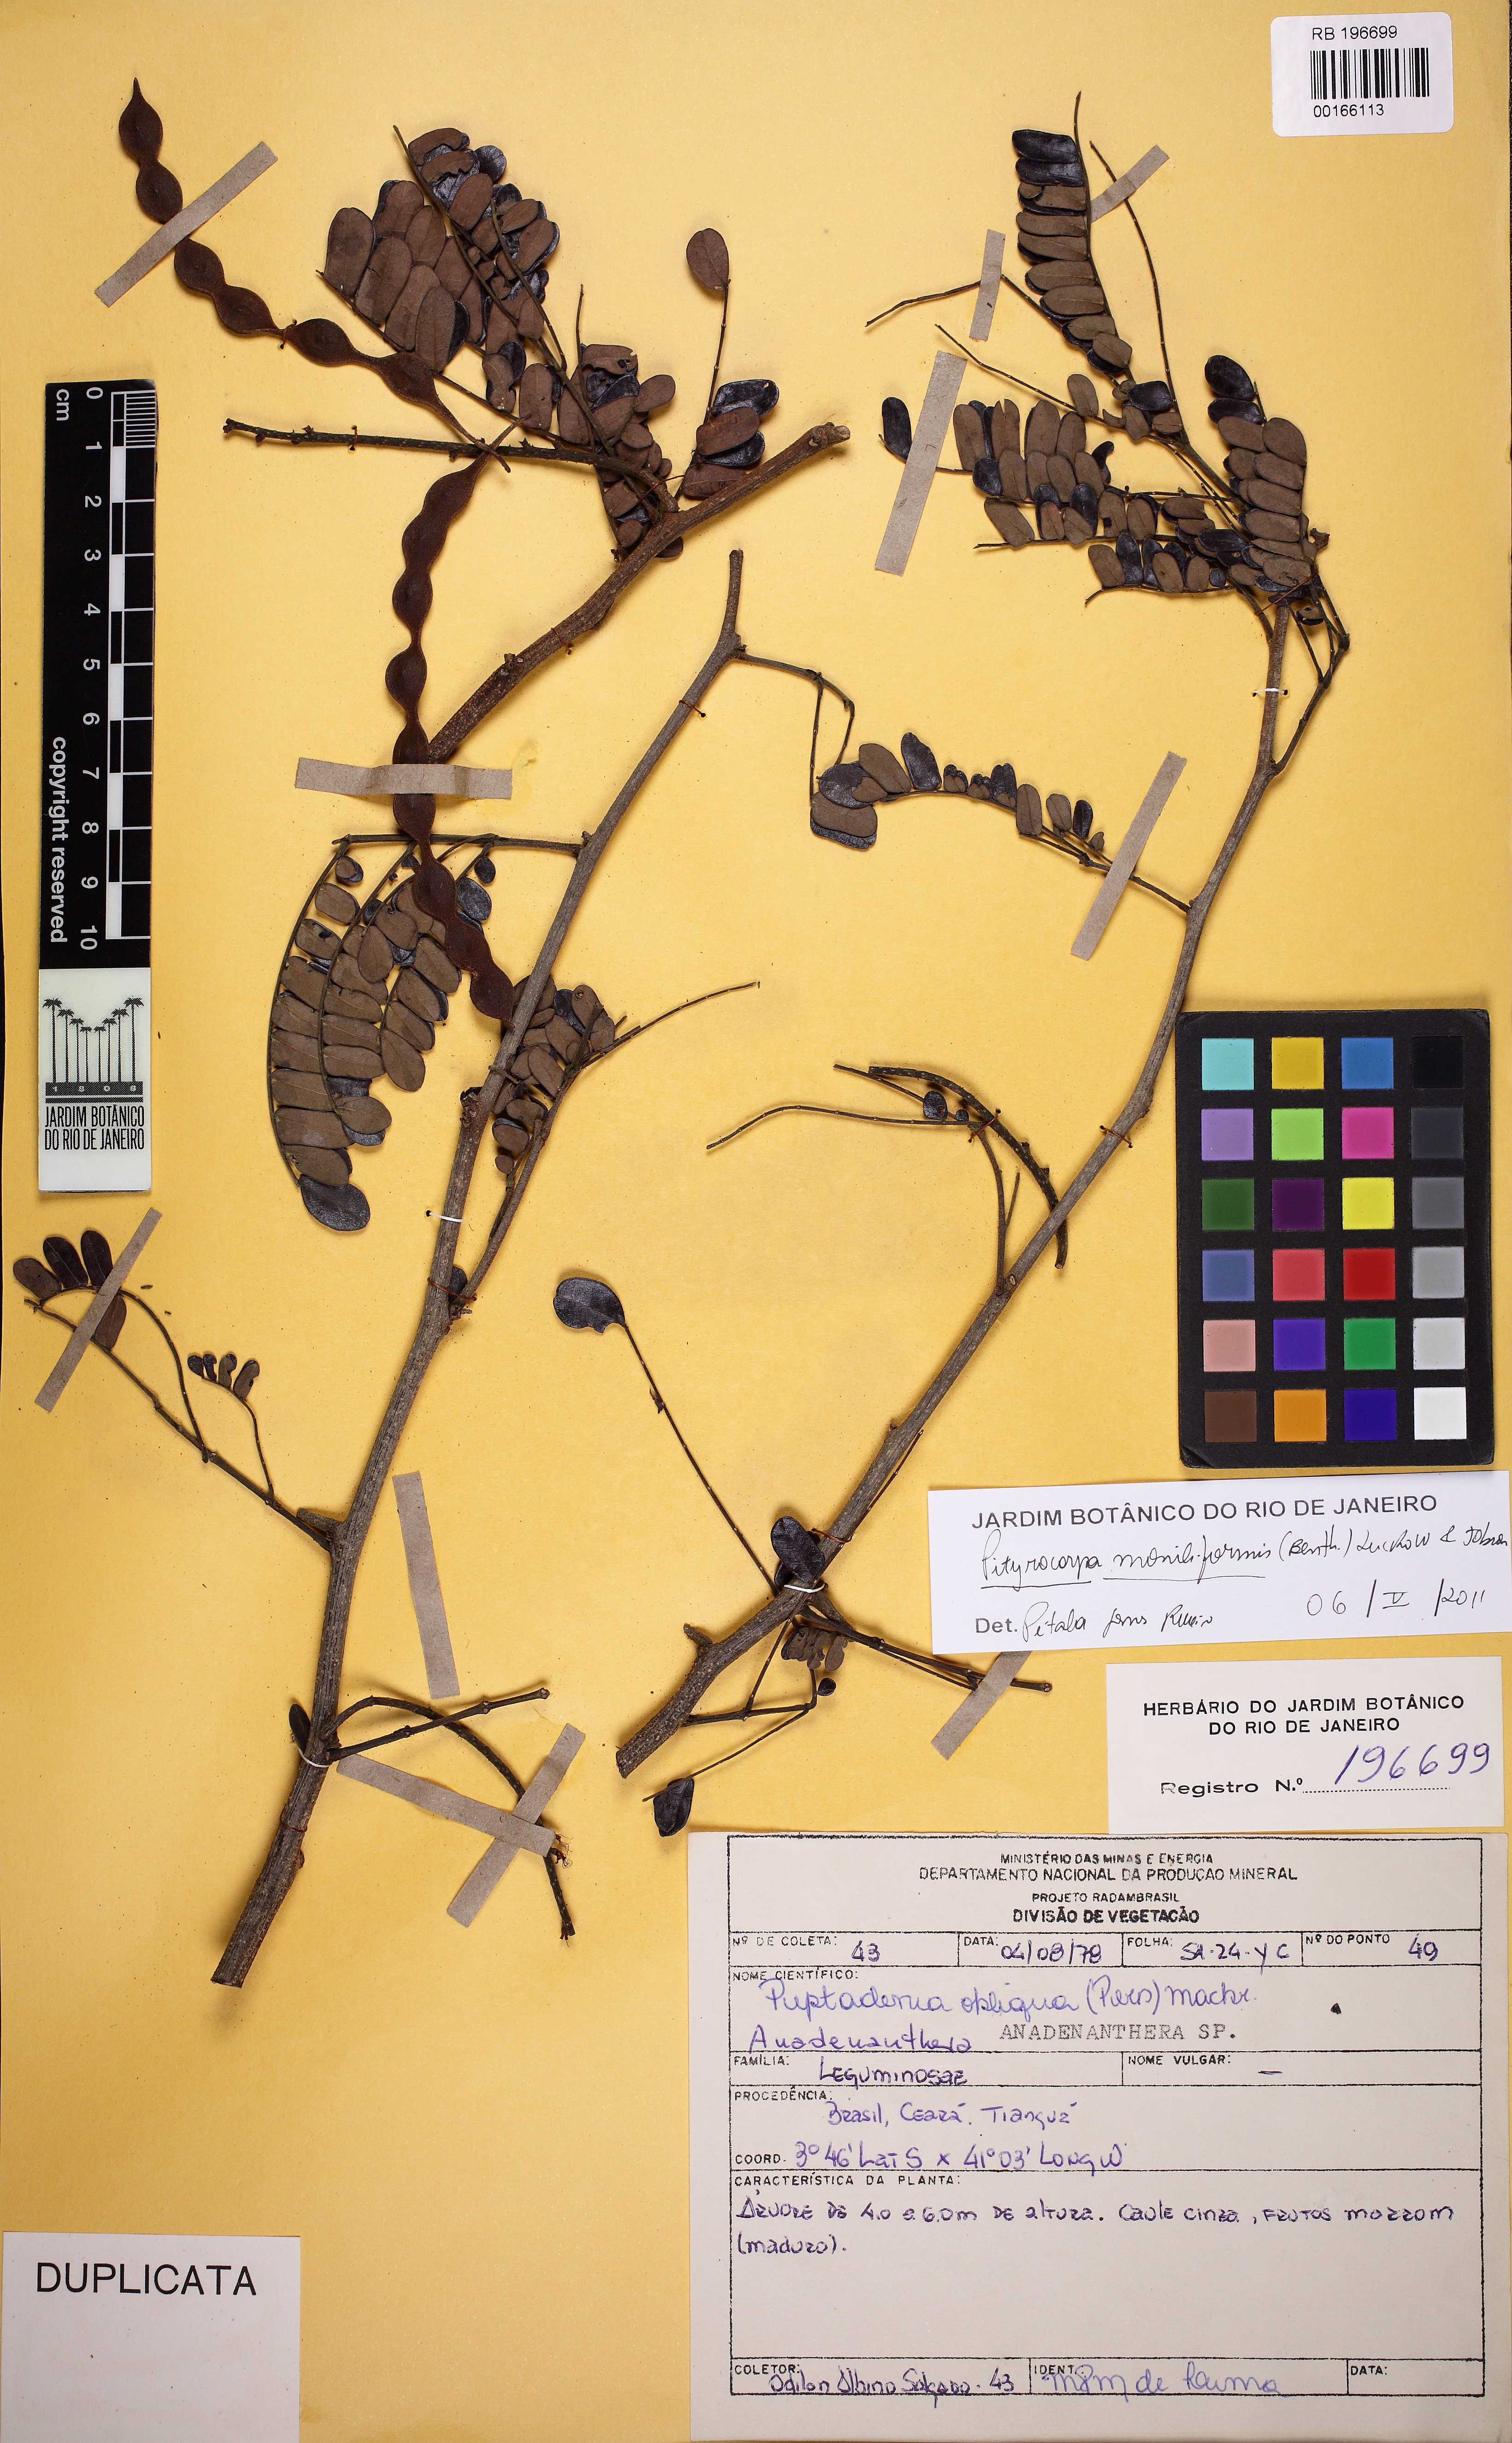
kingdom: Plantae
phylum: Tracheophyta
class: Magnoliopsida
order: Fabales
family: Fabaceae
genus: Pityrocarpa
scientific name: Pityrocarpa moniliformis
